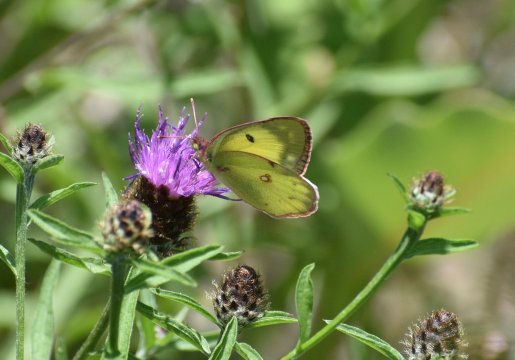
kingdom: Animalia
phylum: Arthropoda
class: Insecta
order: Lepidoptera
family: Pieridae
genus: Colias
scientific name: Colias philodice
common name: Clouded Sulphur
